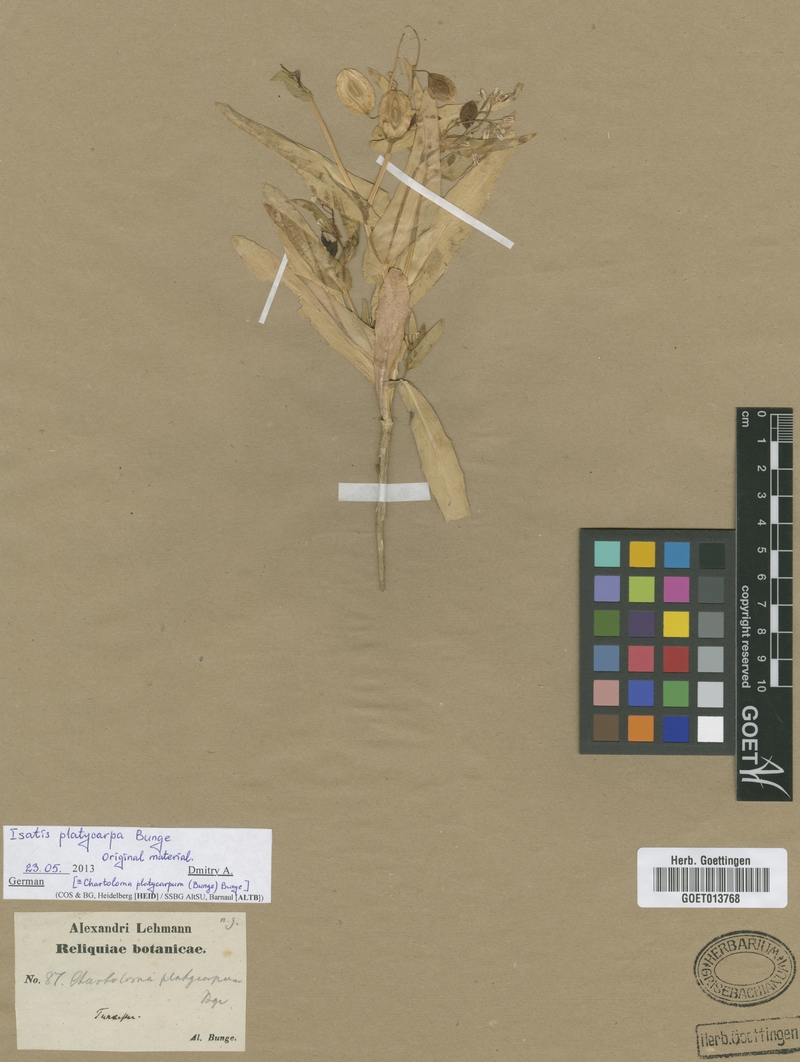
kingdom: Plantae
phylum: Tracheophyta
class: Magnoliopsida
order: Brassicales
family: Brassicaceae
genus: Chartoloma
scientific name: Chartoloma platycarpum
